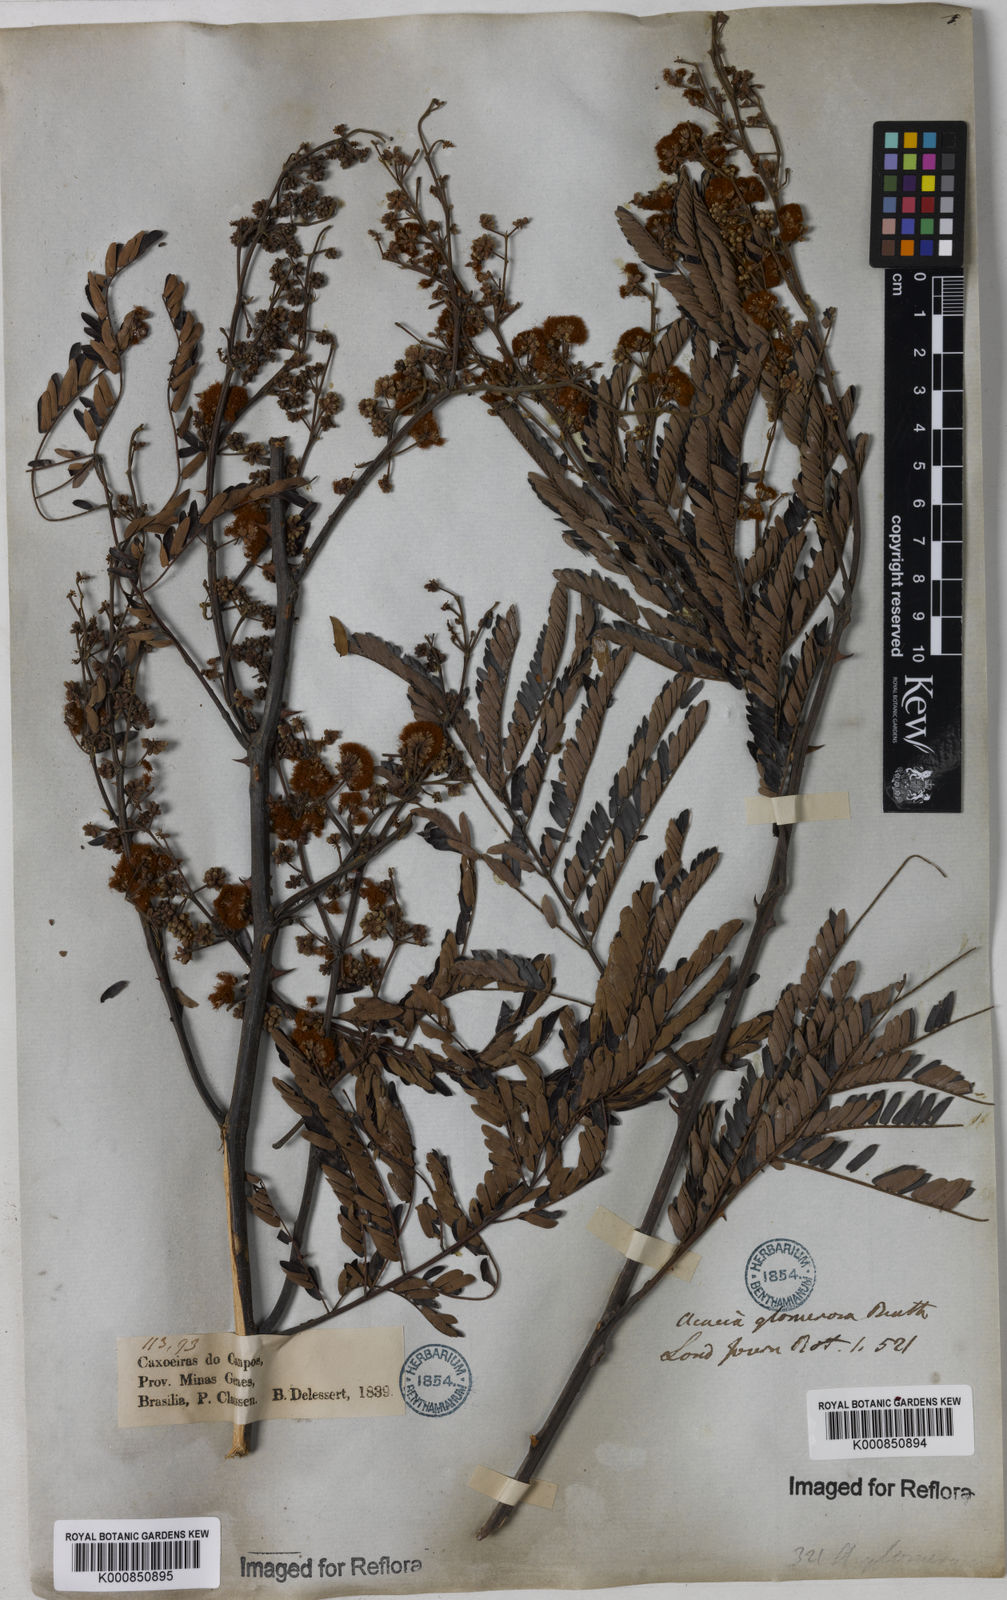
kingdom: Plantae
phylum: Tracheophyta
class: Magnoliopsida
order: Fabales
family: Fabaceae
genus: Senegalia
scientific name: Senegalia polyphylla
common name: White-tamarind
